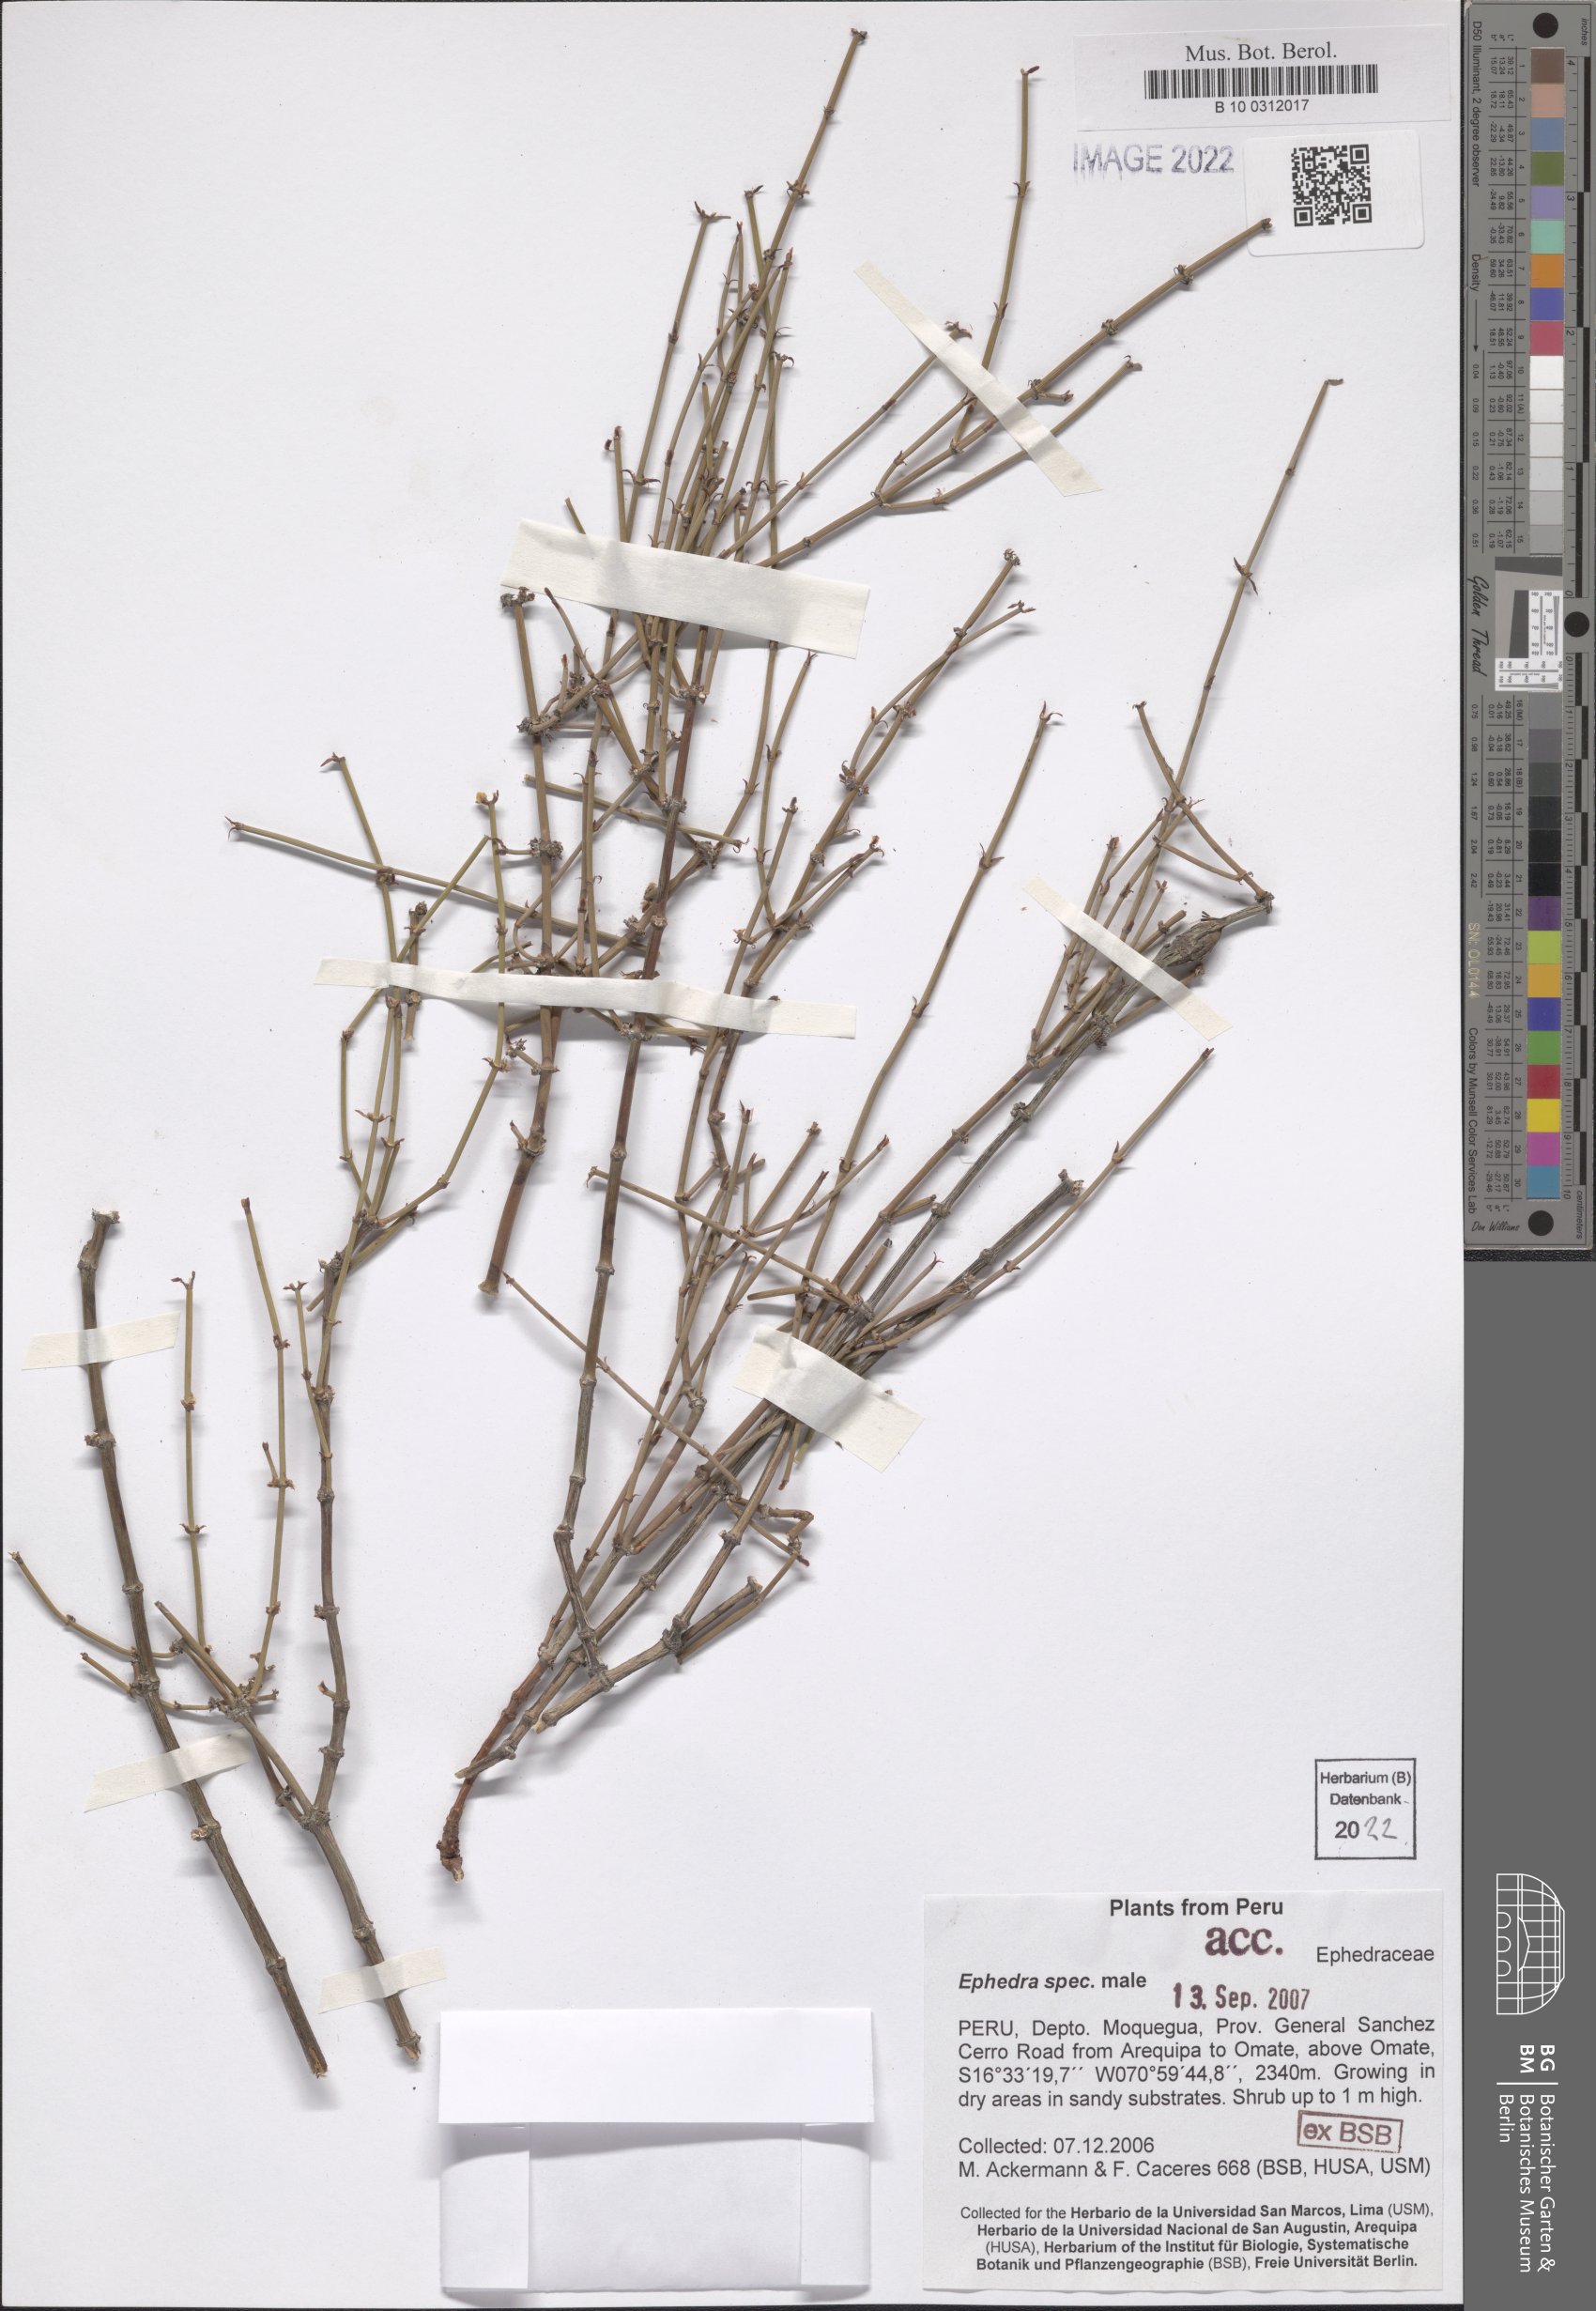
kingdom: Plantae
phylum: Tracheophyta
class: Gnetopsida
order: Ephedrales
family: Ephedraceae
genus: Ephedra
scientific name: Ephedra
